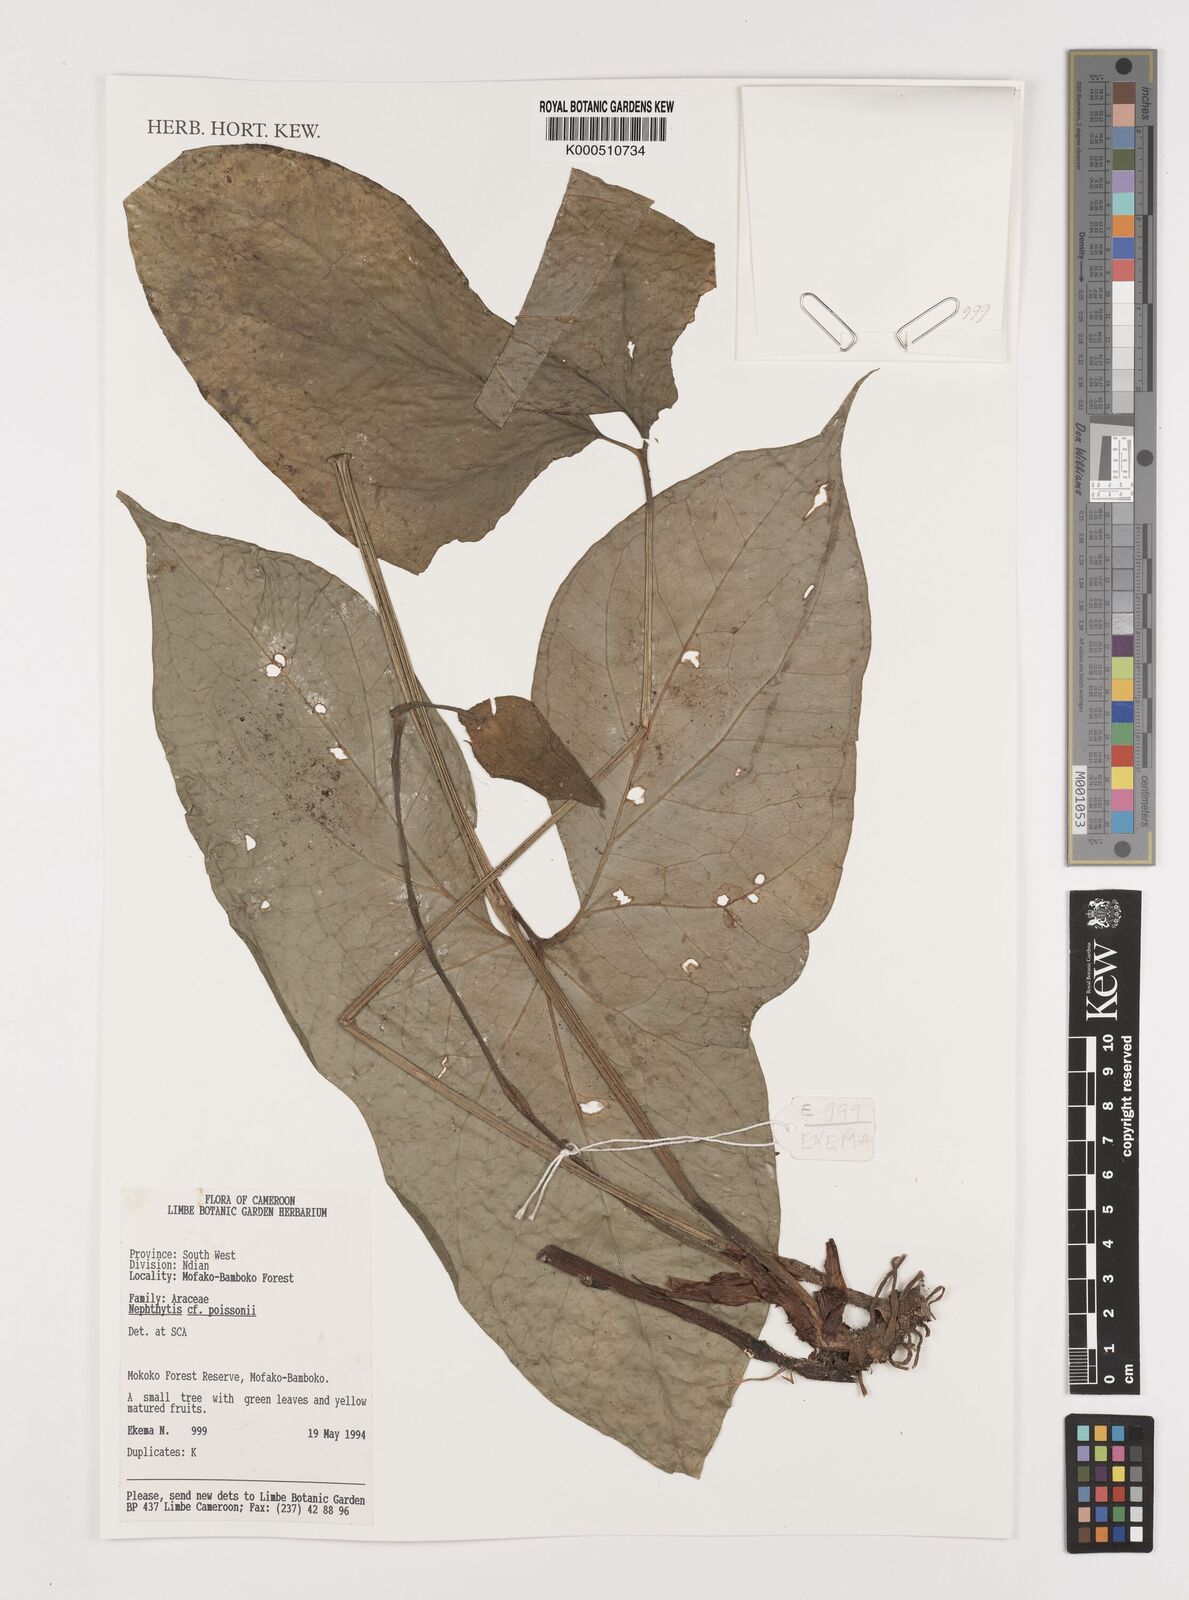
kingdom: Plantae
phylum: Tracheophyta
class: Liliopsida
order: Alismatales
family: Araceae
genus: Nephthytis
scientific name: Nephthytis poissonii
